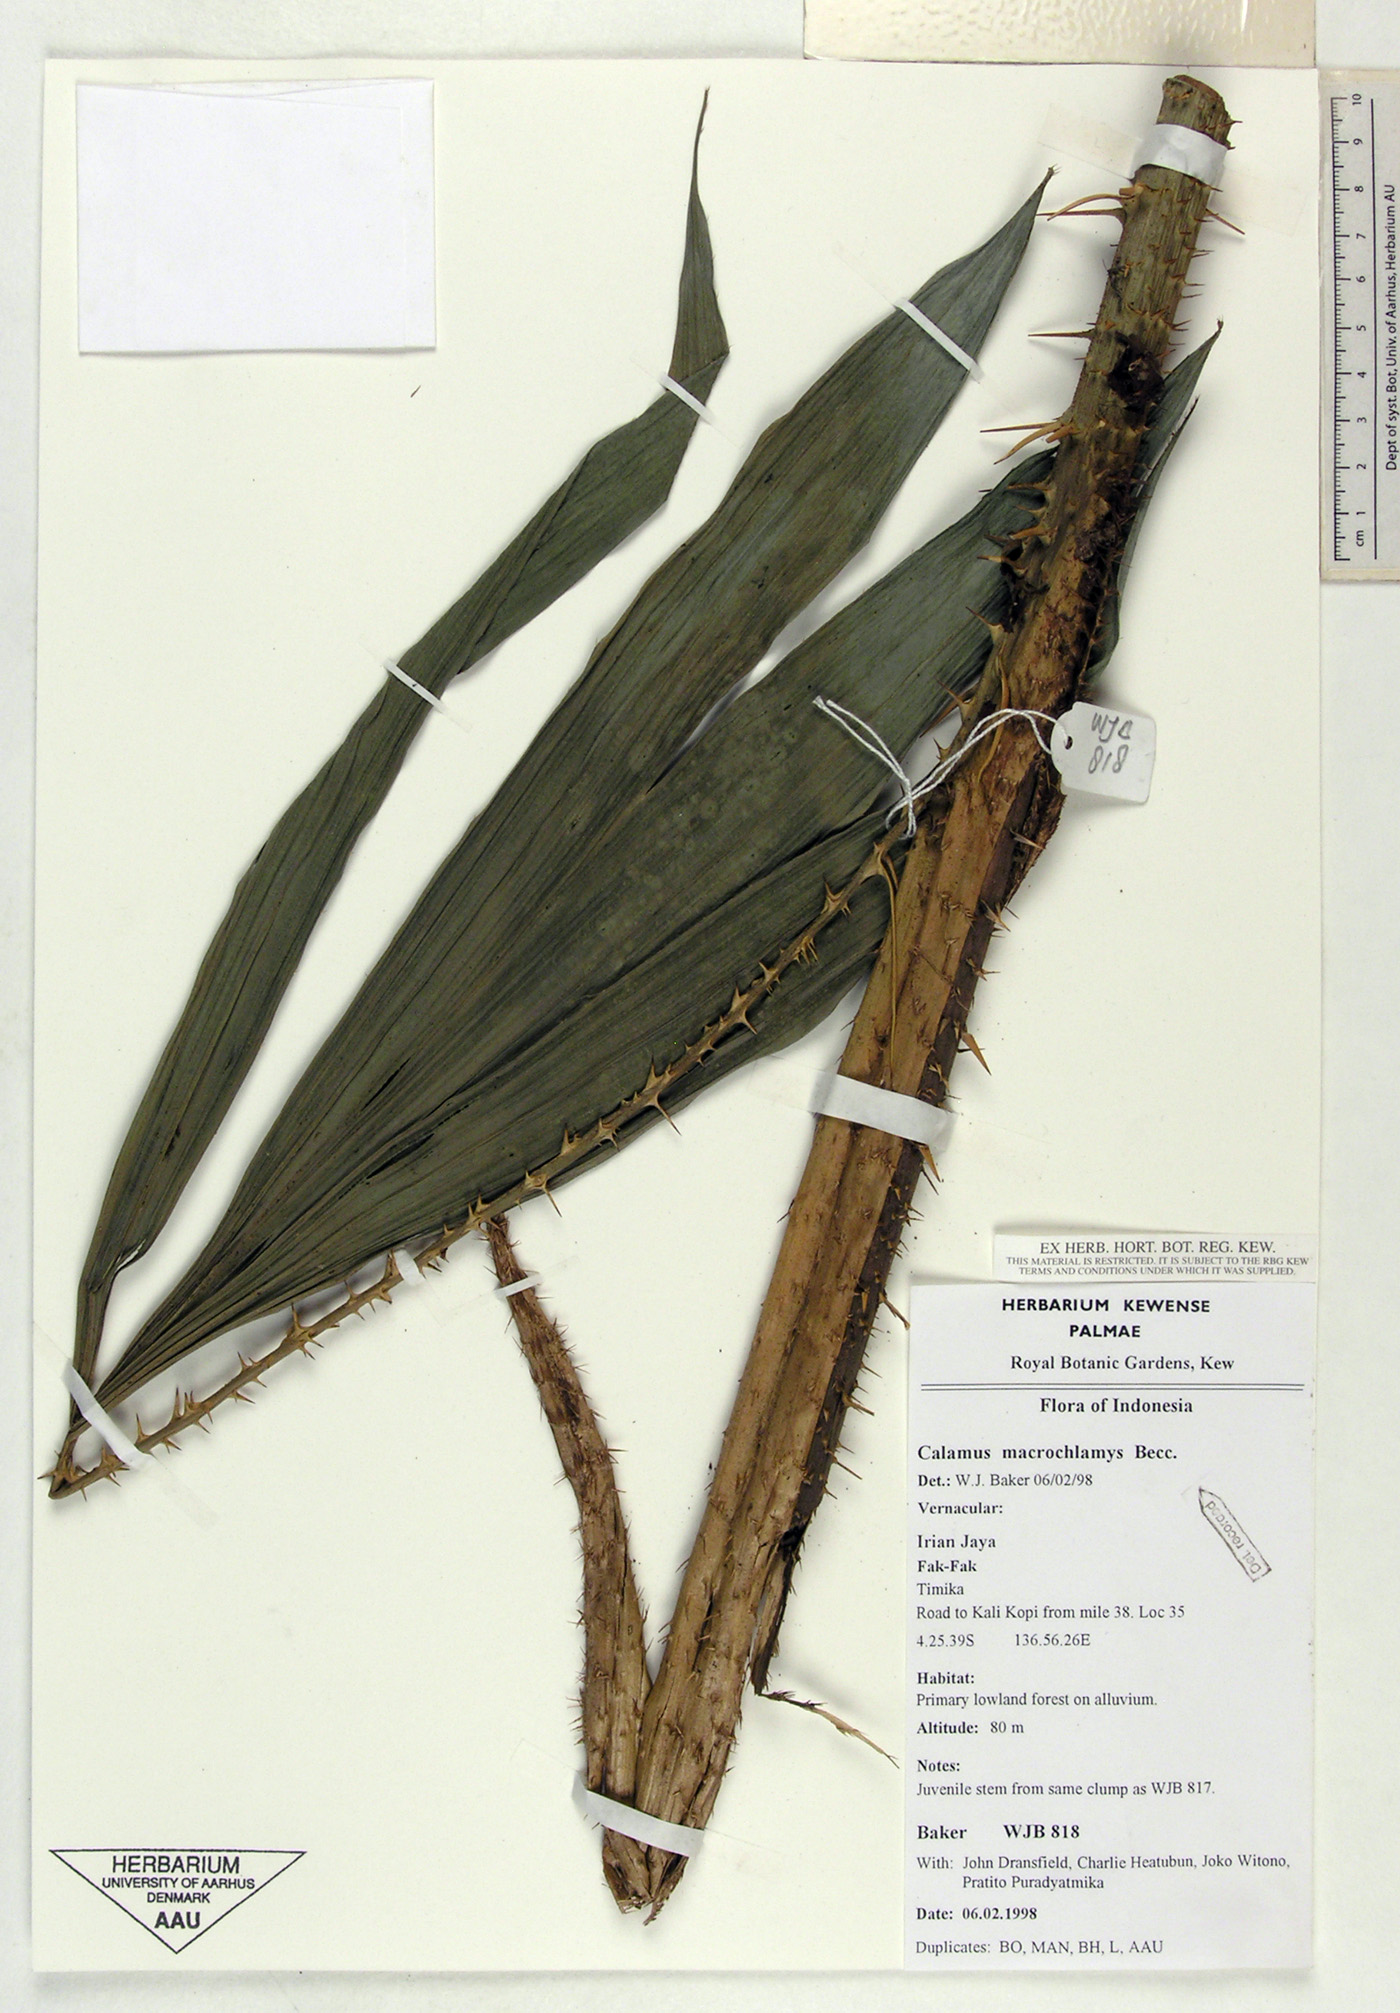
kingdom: Plantae
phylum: Tracheophyta
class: Liliopsida
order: Arecales
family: Arecaceae
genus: Calamus
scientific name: Calamus macrochlamys
